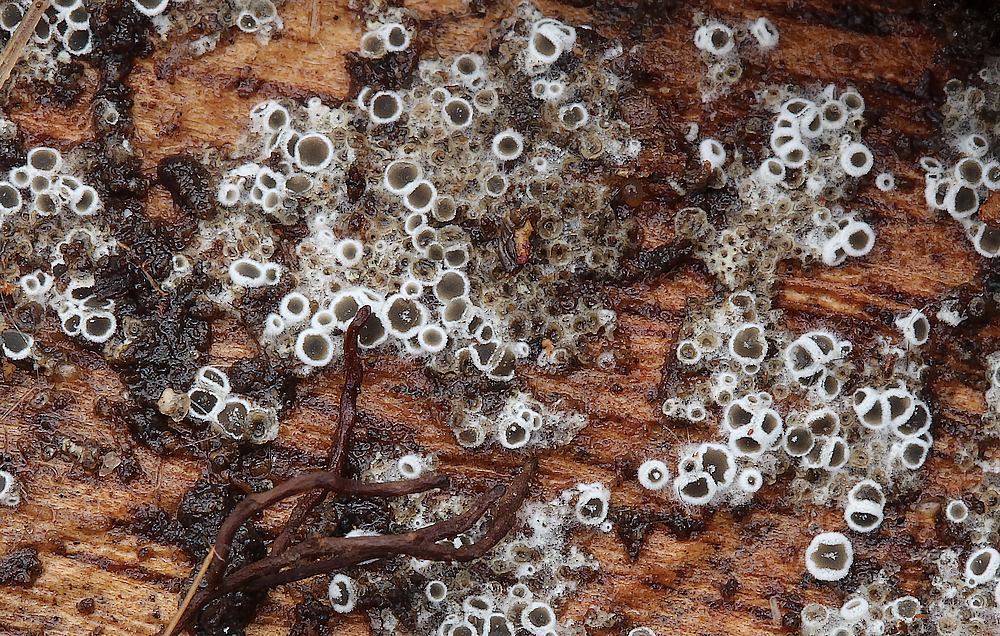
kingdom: Fungi
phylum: Ascomycota
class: Leotiomycetes
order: Helotiales
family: Arachnopezizaceae
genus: Eriopezia
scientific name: Eriopezia caesia
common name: ege-spindskive
